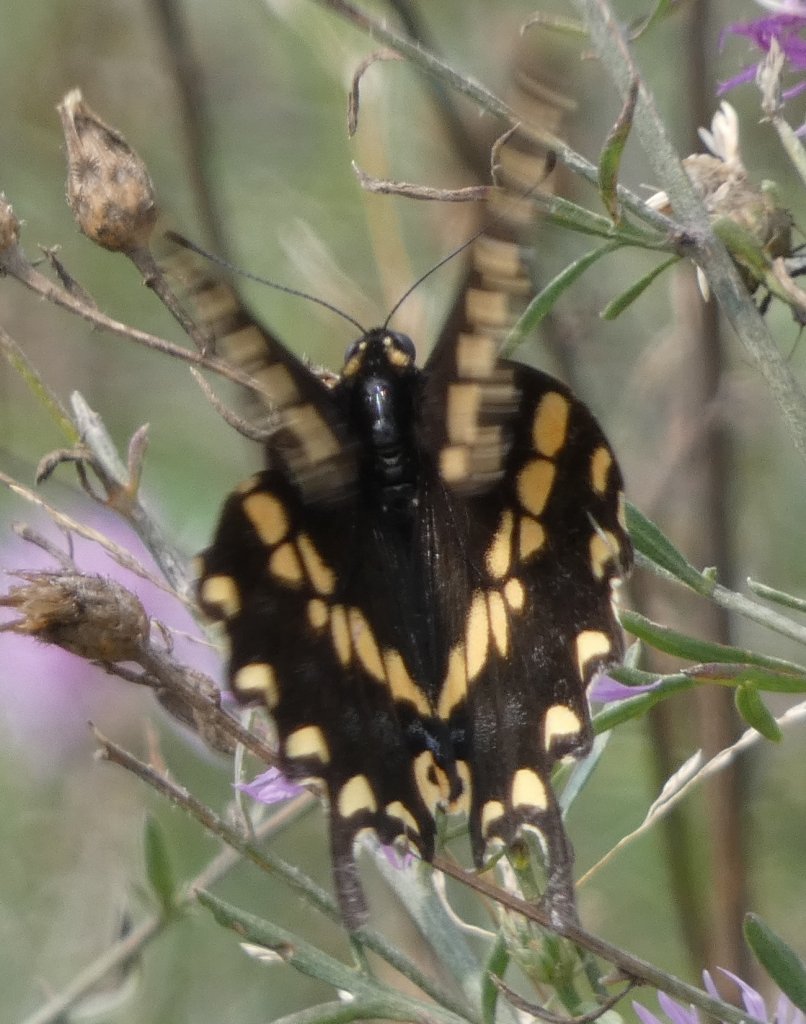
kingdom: Animalia
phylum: Arthropoda
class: Insecta
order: Lepidoptera
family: Papilionidae
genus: Papilio
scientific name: Papilio polyxenes
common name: Black Swallowtail
